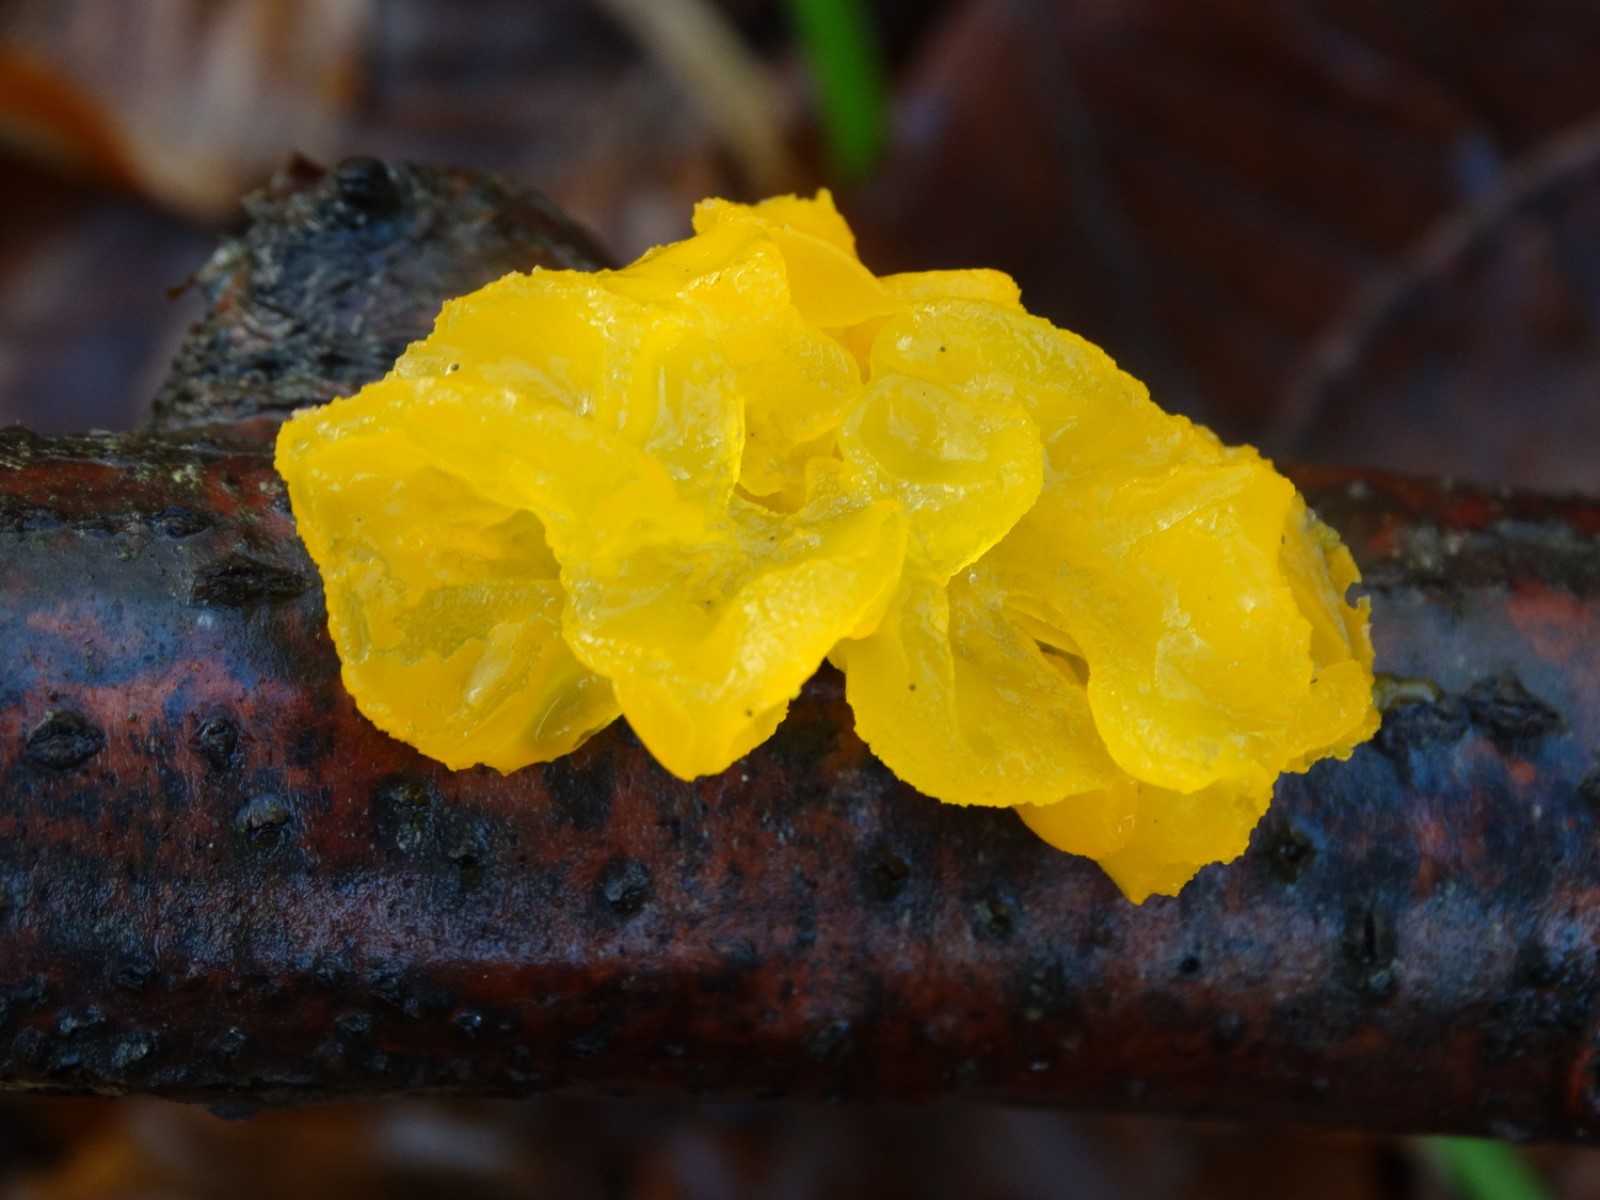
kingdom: Fungi
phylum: Basidiomycota
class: Tremellomycetes
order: Tremellales
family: Tremellaceae
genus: Tremella
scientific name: Tremella mesenterica
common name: gul bævresvamp
